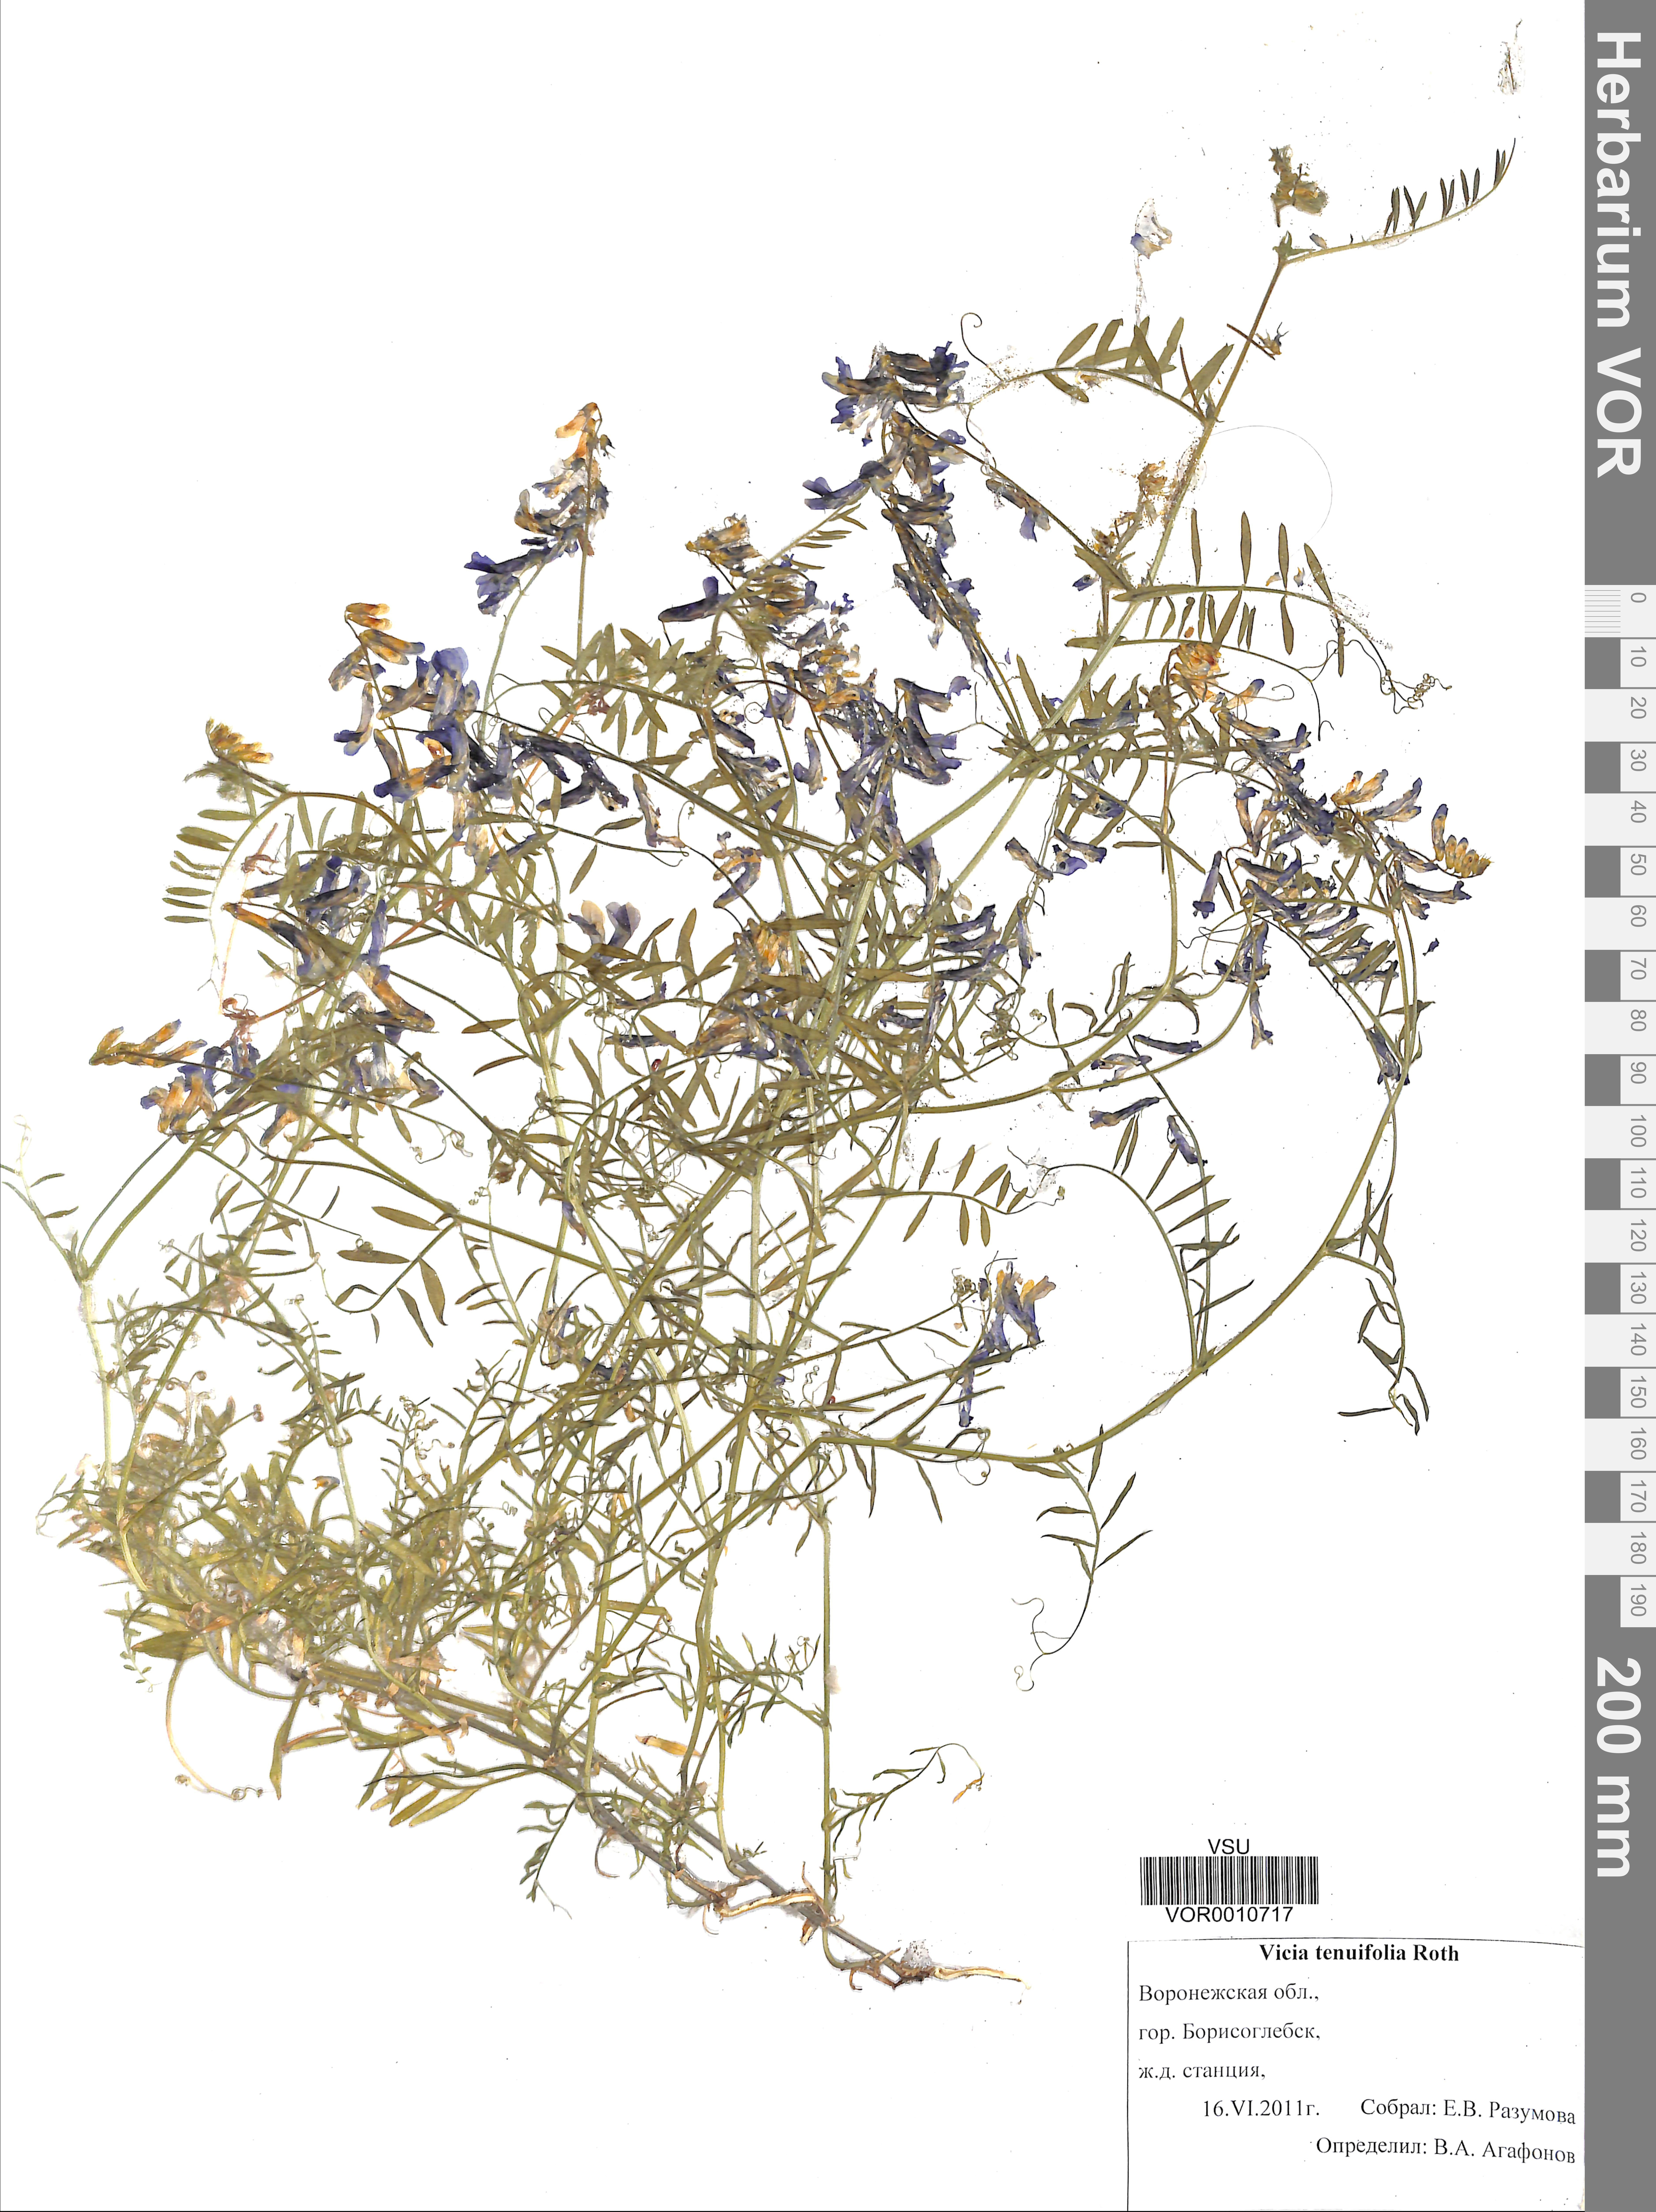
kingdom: Plantae
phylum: Tracheophyta
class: Magnoliopsida
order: Fabales
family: Fabaceae
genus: Vicia
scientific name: Vicia tenuifolia
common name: Fine-leaved vetch
